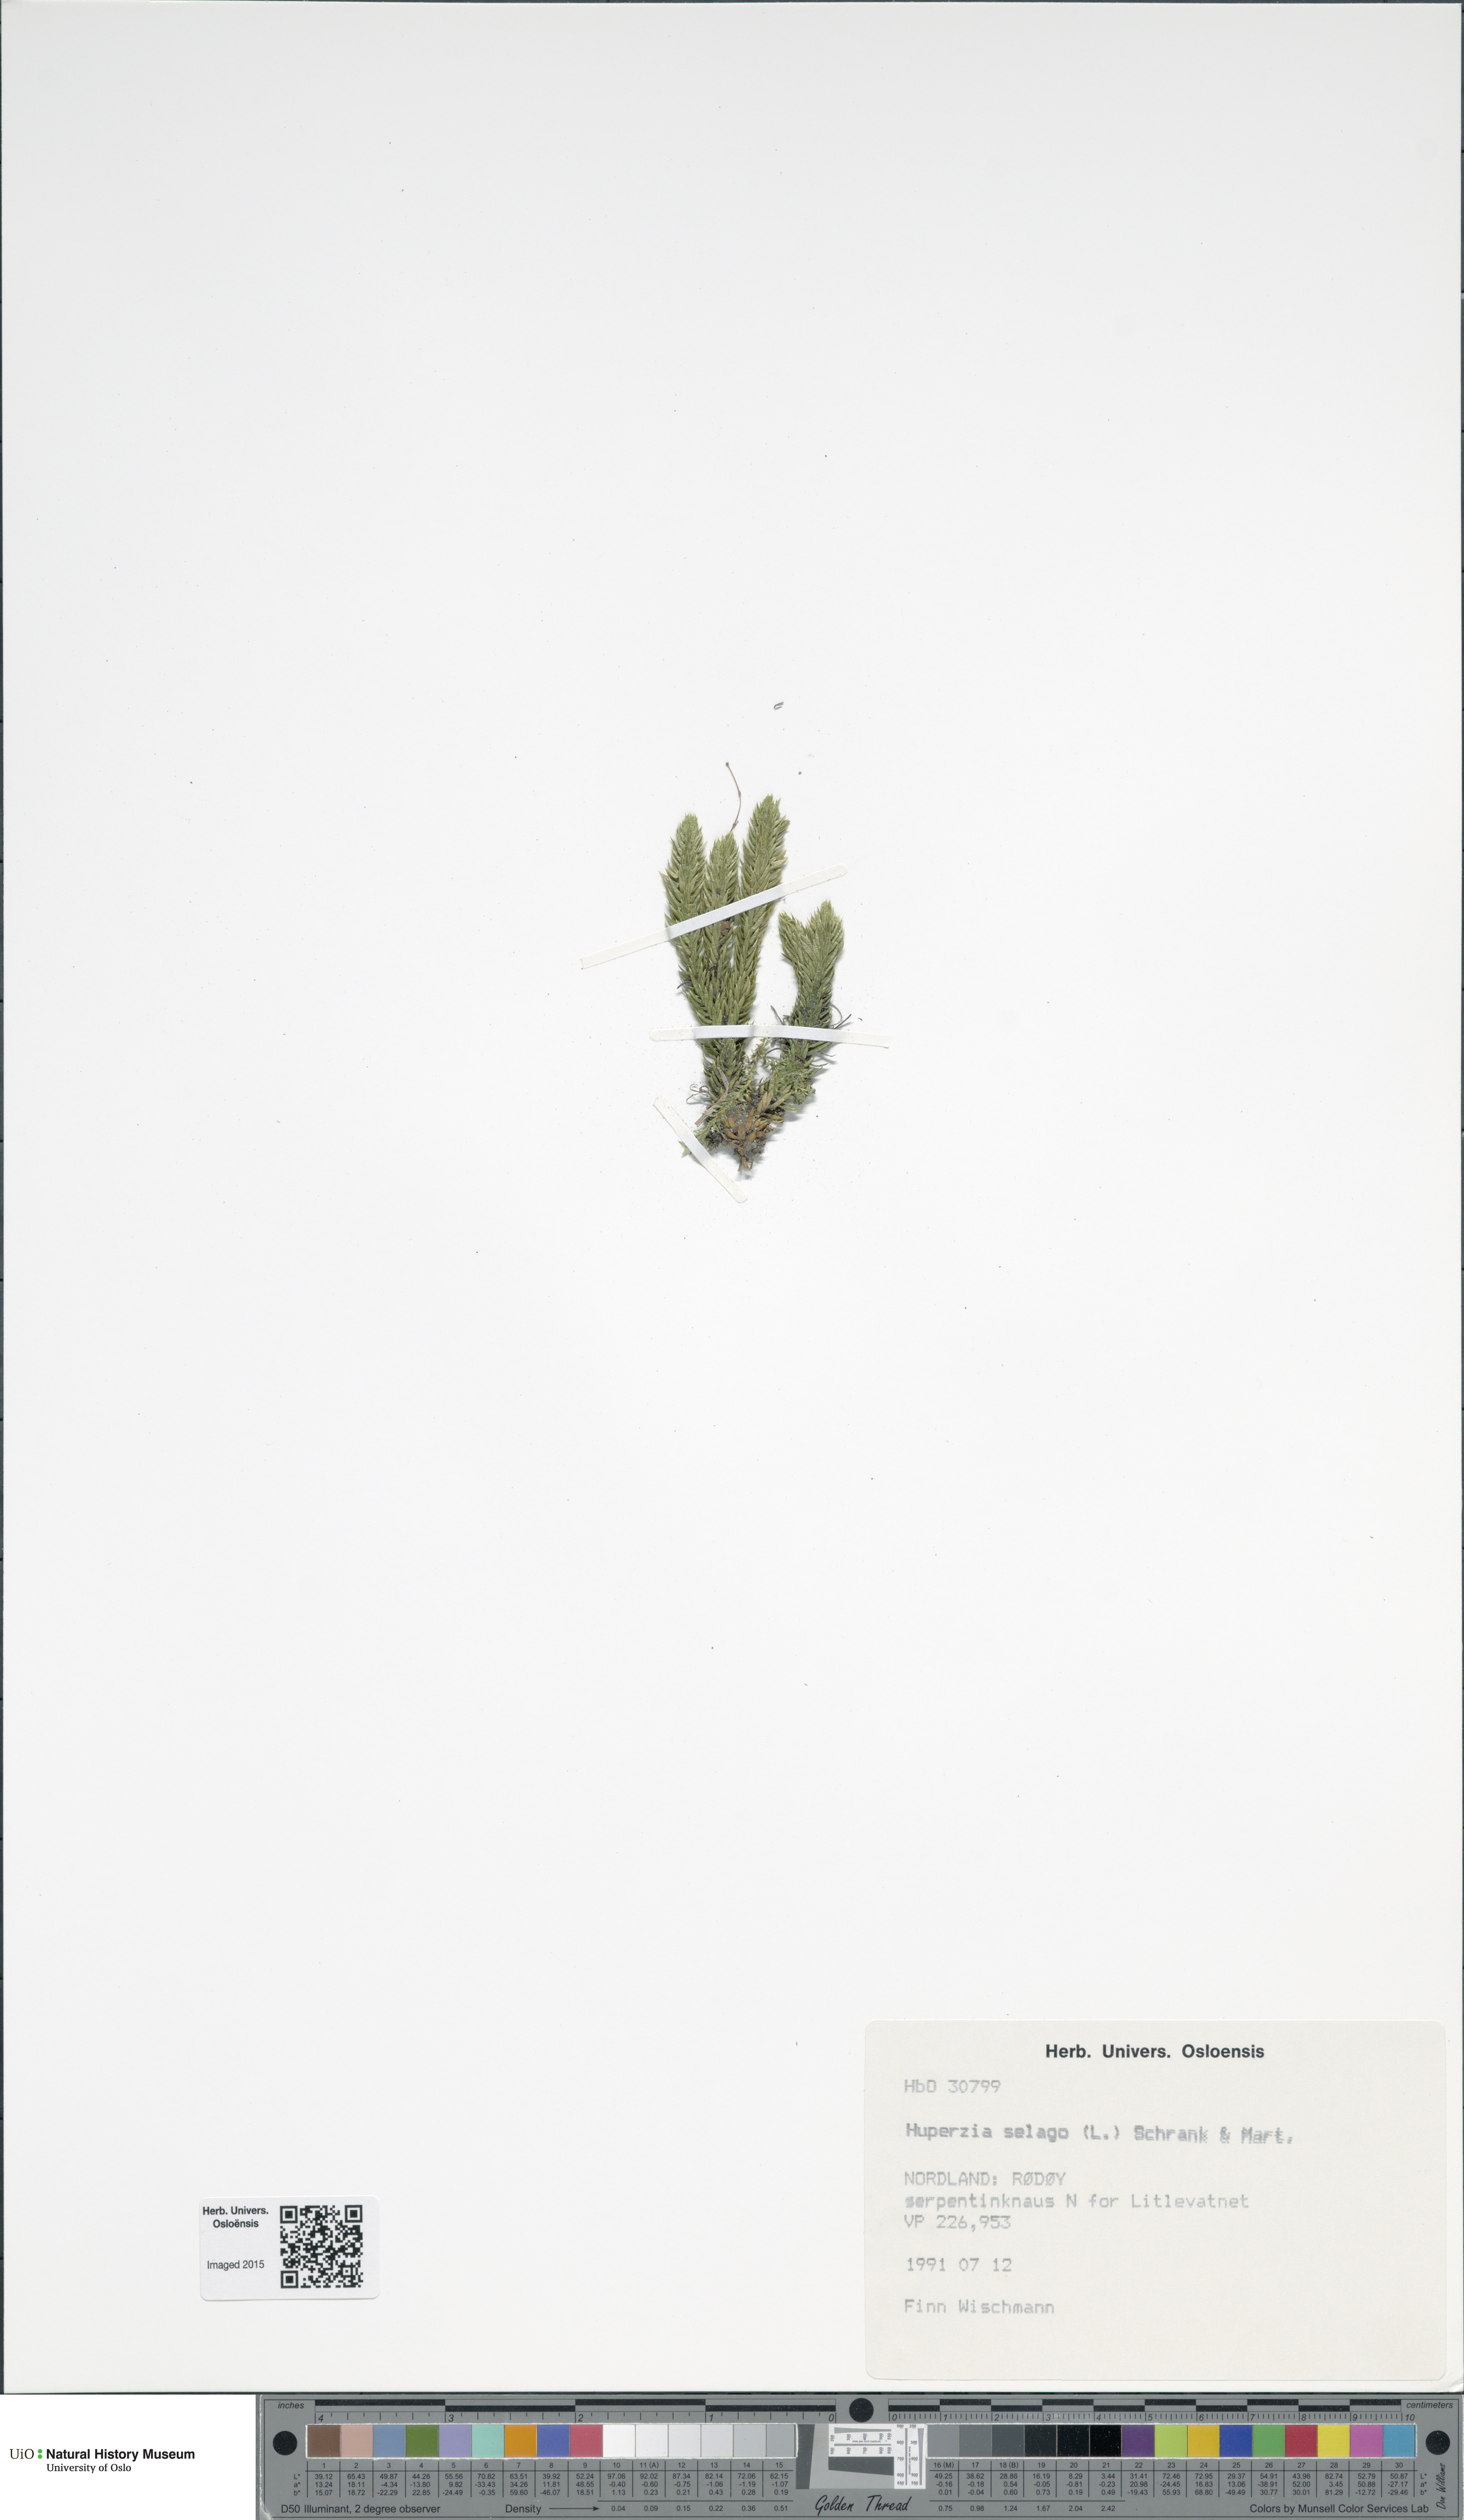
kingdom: Plantae
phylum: Tracheophyta
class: Lycopodiopsida
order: Lycopodiales
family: Lycopodiaceae
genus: Huperzia
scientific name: Huperzia selago
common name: Northern firmoss
